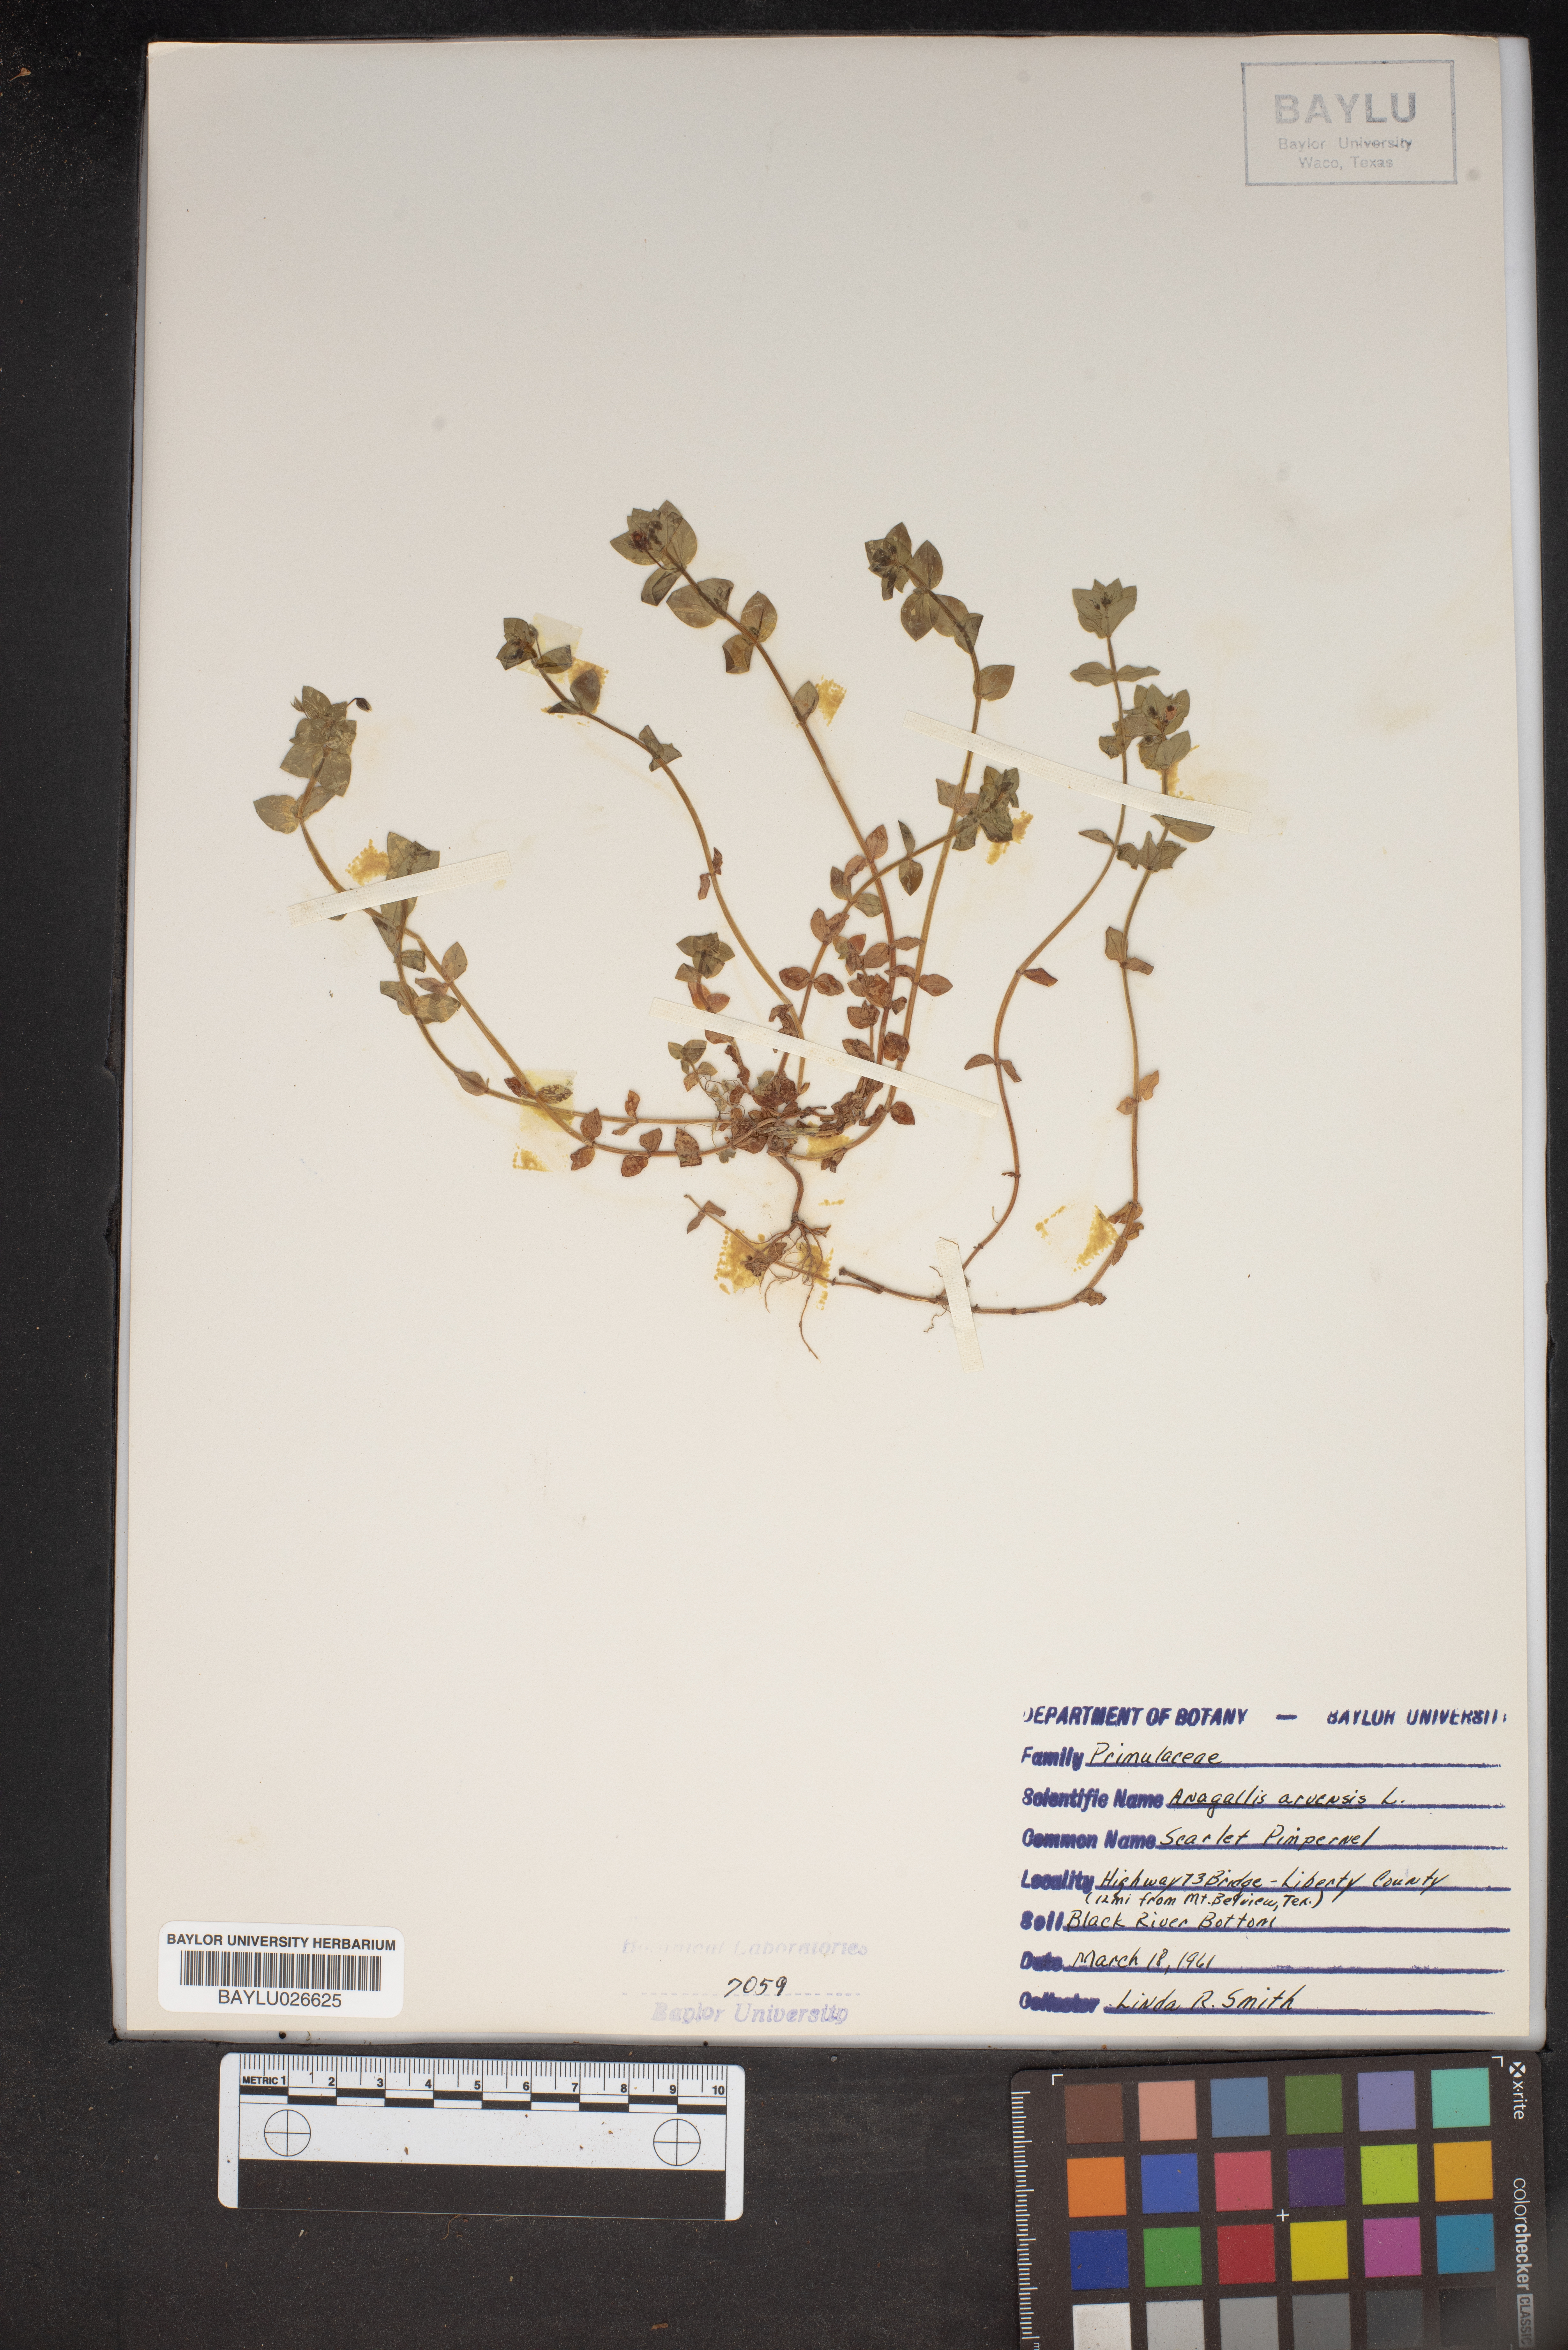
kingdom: Plantae
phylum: Tracheophyta
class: Magnoliopsida
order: Ericales
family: Primulaceae
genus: Lysimachia
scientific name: Lysimachia arvensis
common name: Scarlet pimpernel
